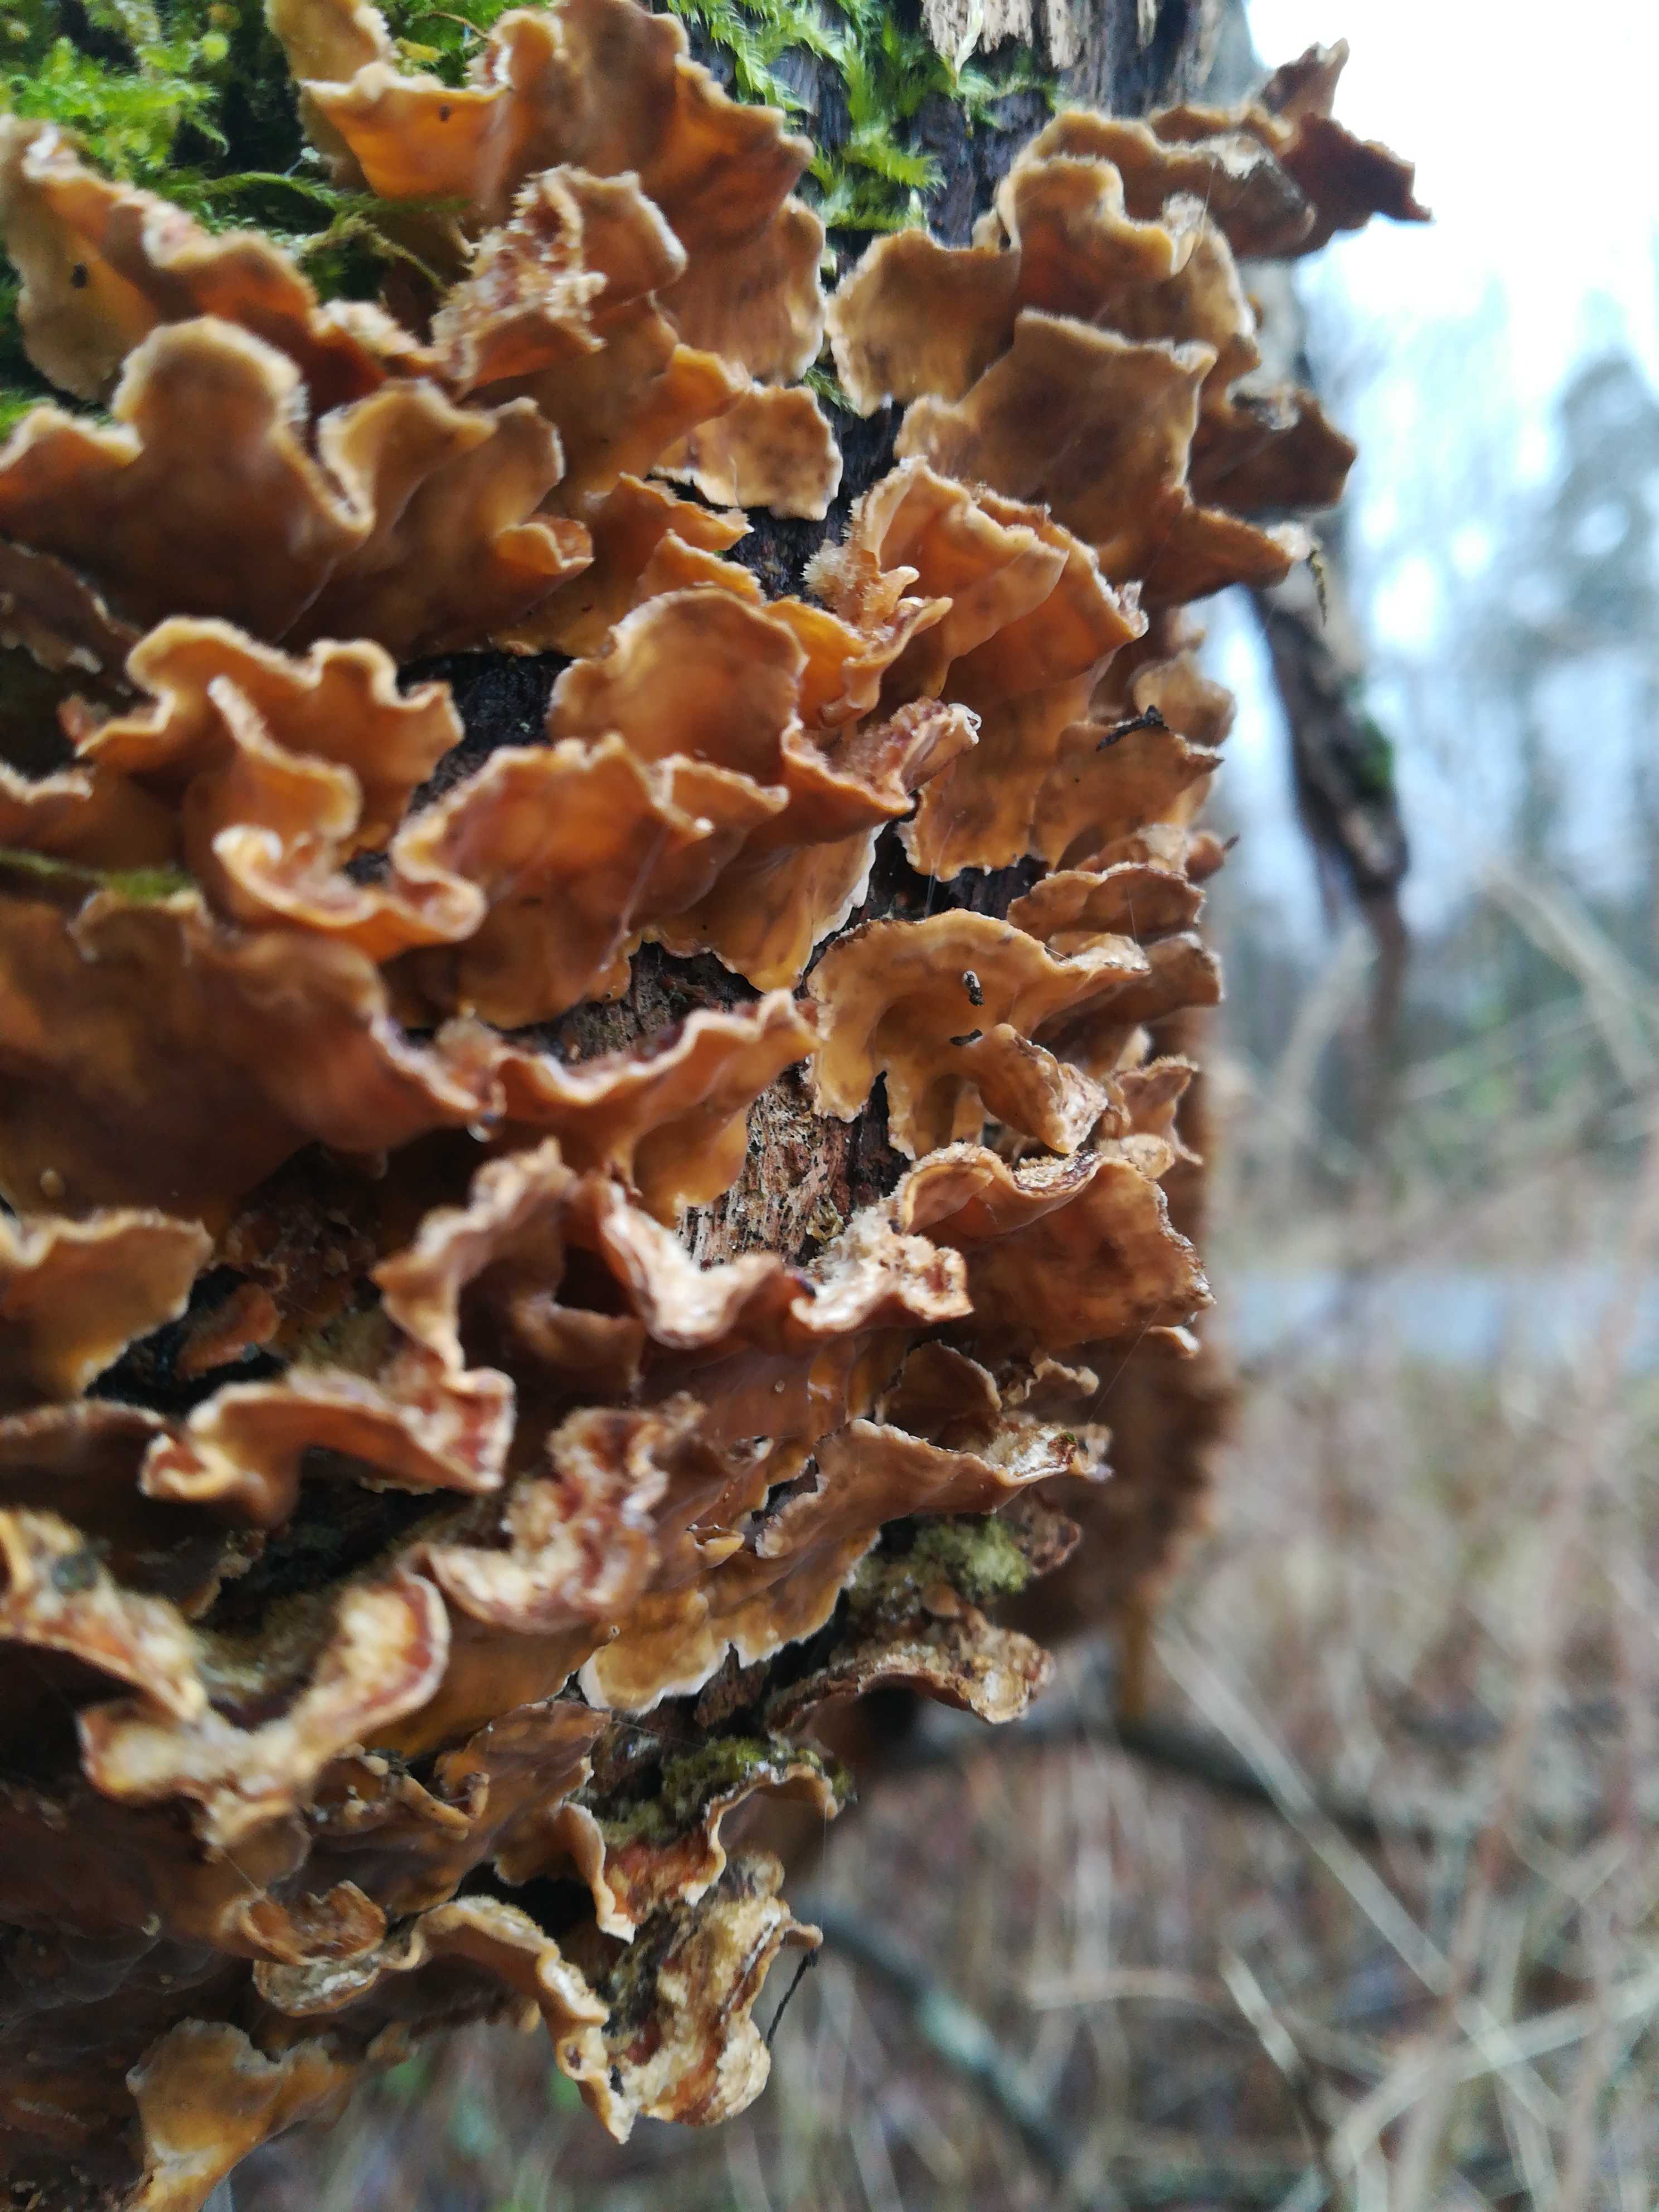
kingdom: Fungi
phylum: Basidiomycota
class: Agaricomycetes
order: Russulales
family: Stereaceae
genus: Stereum
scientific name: Stereum hirsutum
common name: håret lædersvamp
